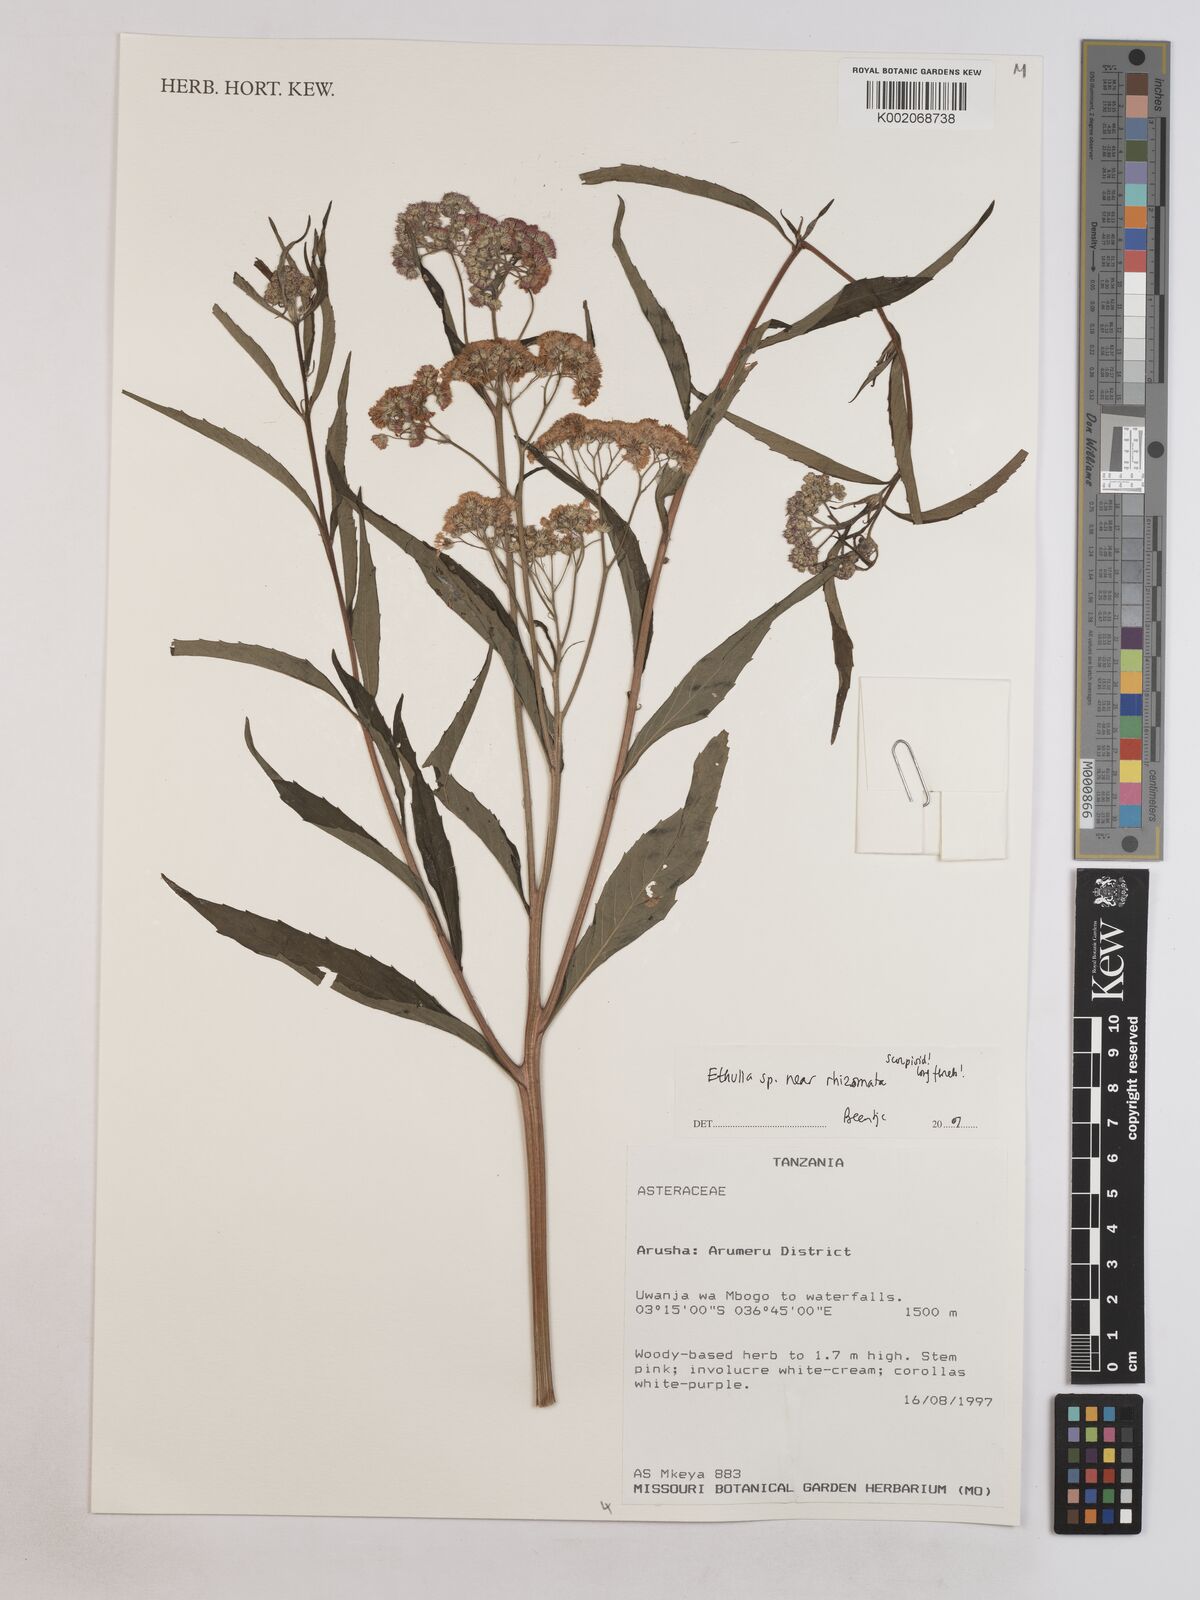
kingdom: Plantae
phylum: Tracheophyta
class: Magnoliopsida
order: Asterales
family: Asteraceae
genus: Ethulia
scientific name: Ethulia rhizomata
